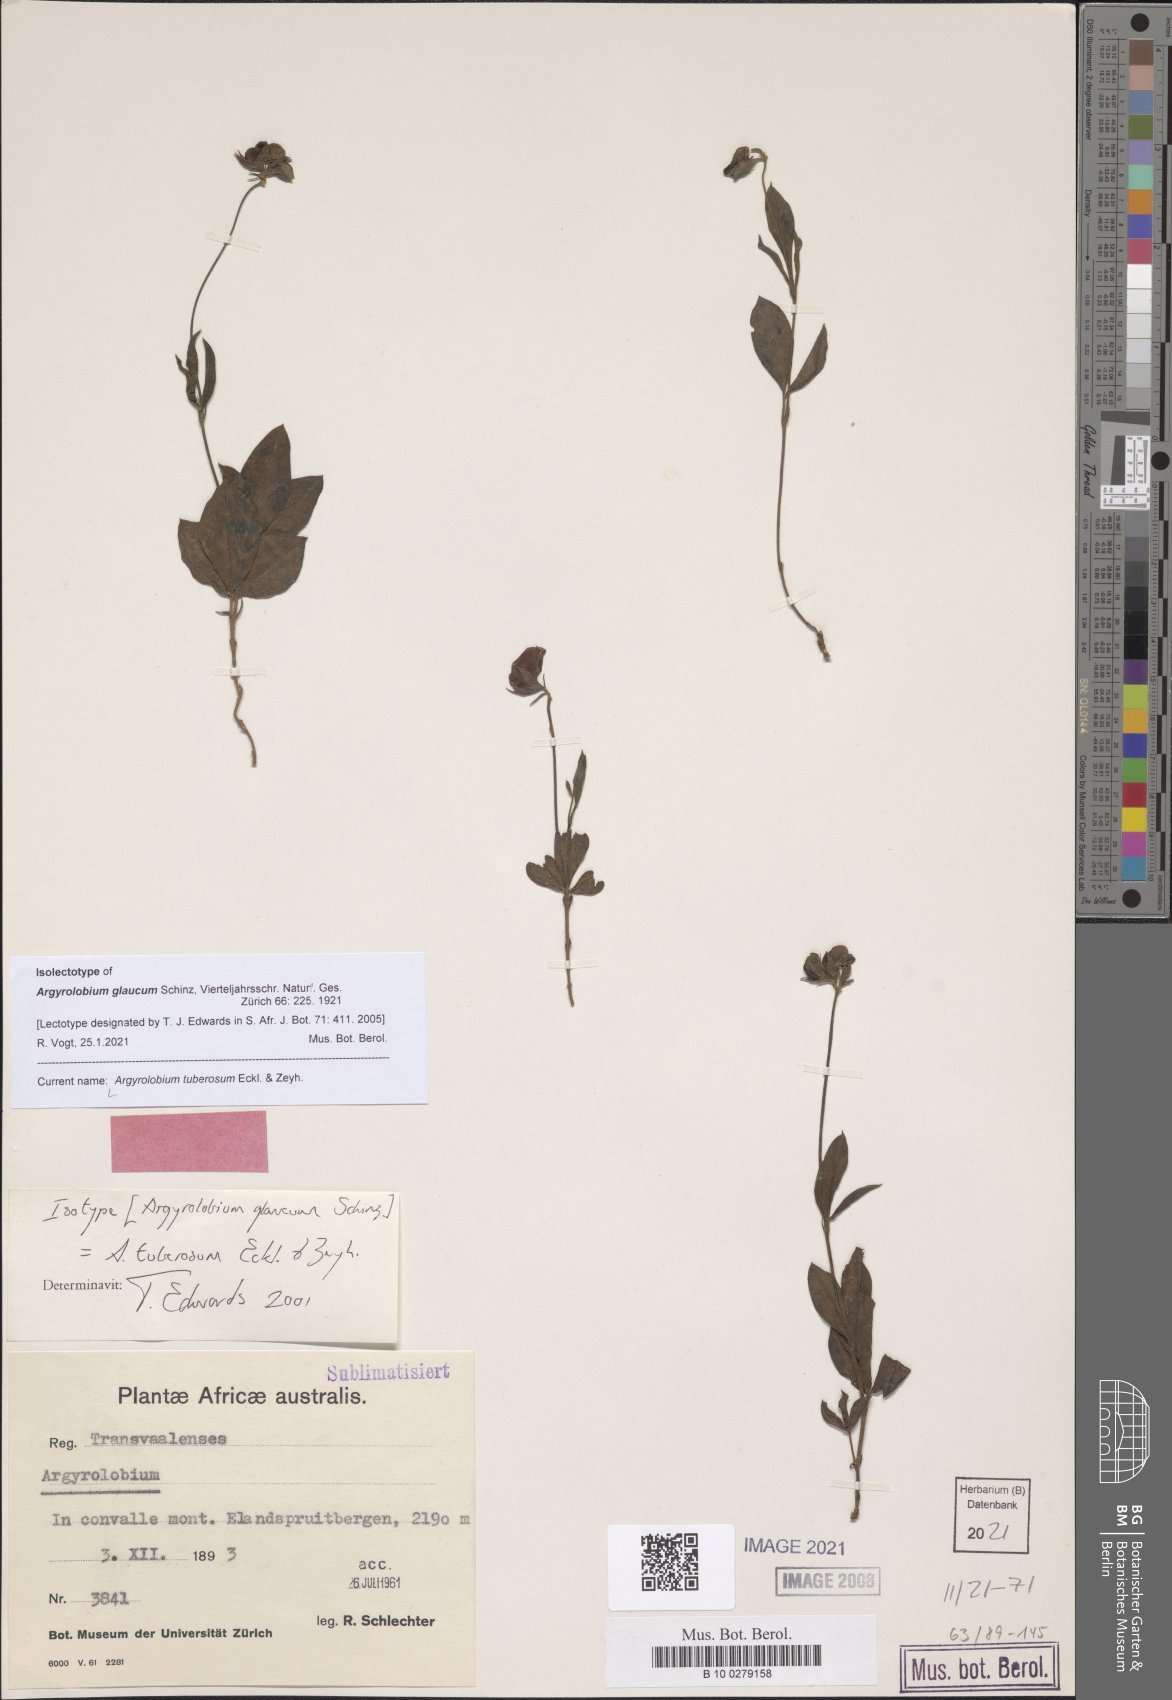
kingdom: Plantae
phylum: Tracheophyta
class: Magnoliopsida
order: Fabales
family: Fabaceae
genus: Argyrolobium
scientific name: Argyrolobium tuberosum
